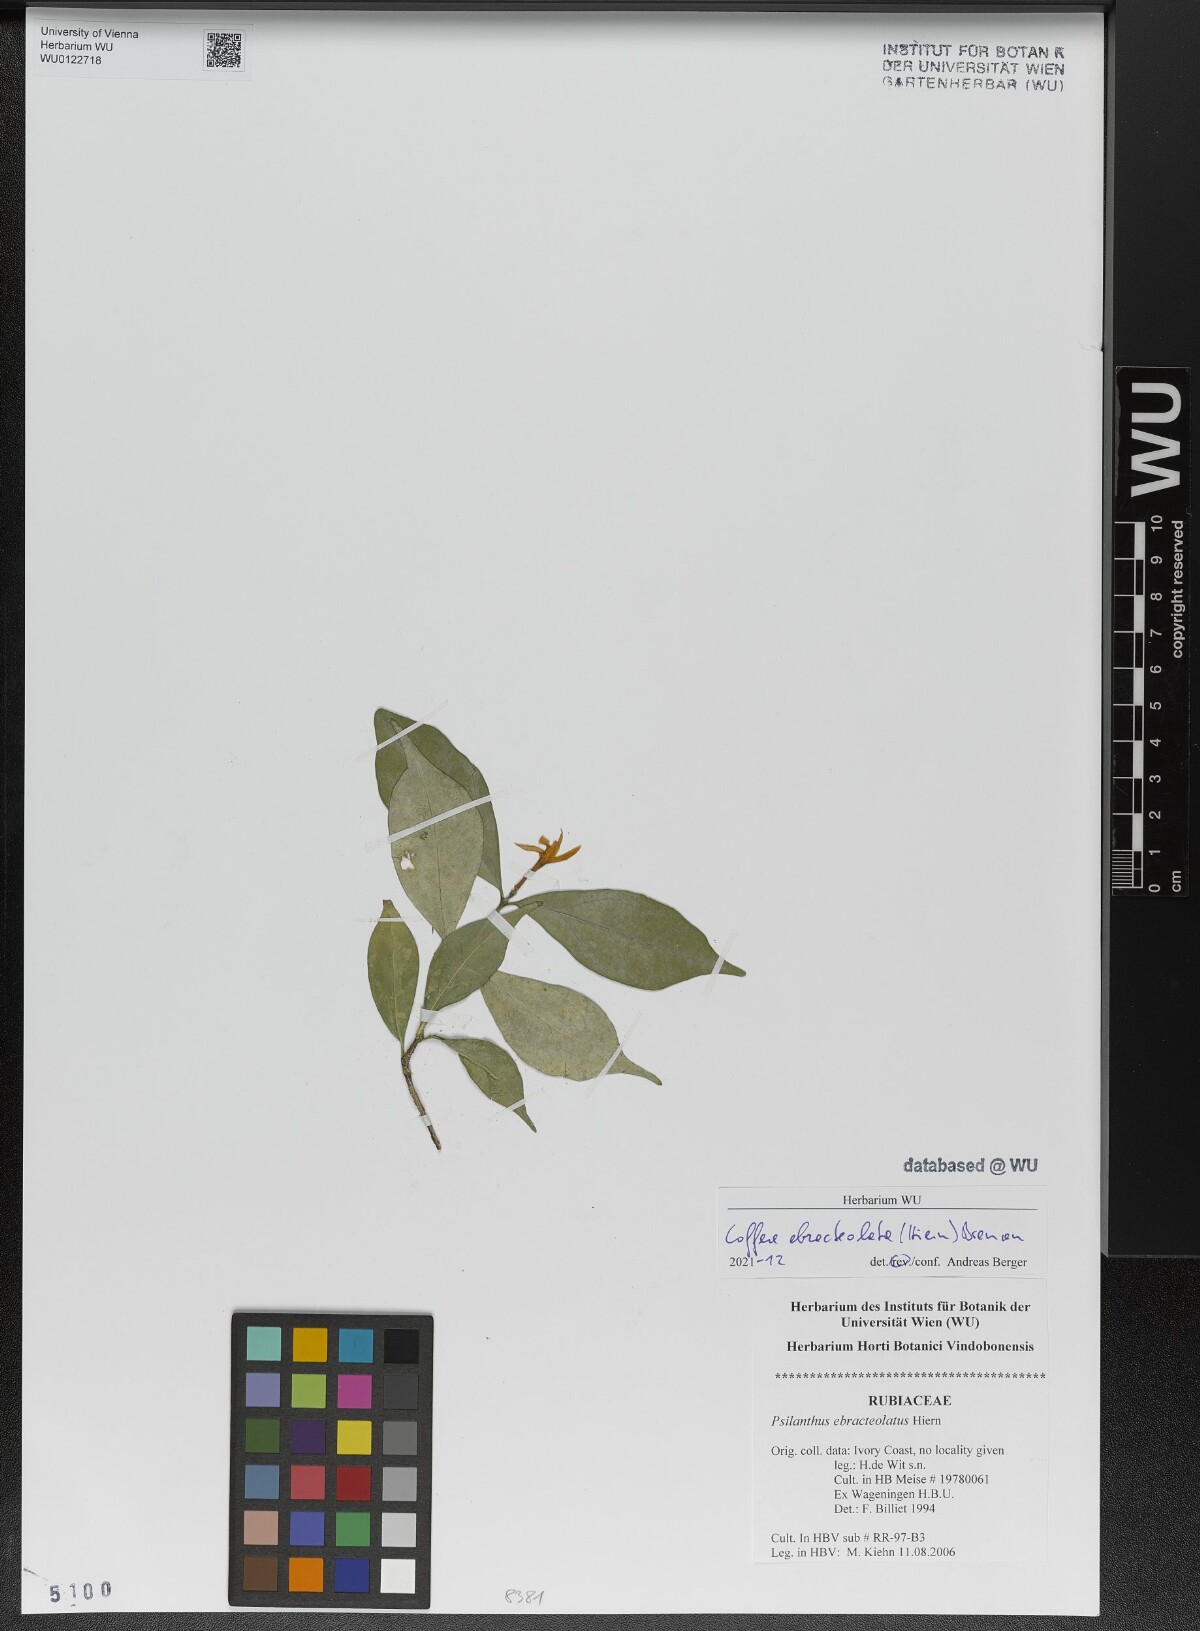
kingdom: Plantae
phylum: Tracheophyta
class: Magnoliopsida
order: Gentianales
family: Rubiaceae
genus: Coffea
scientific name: Coffea ebracteolata
